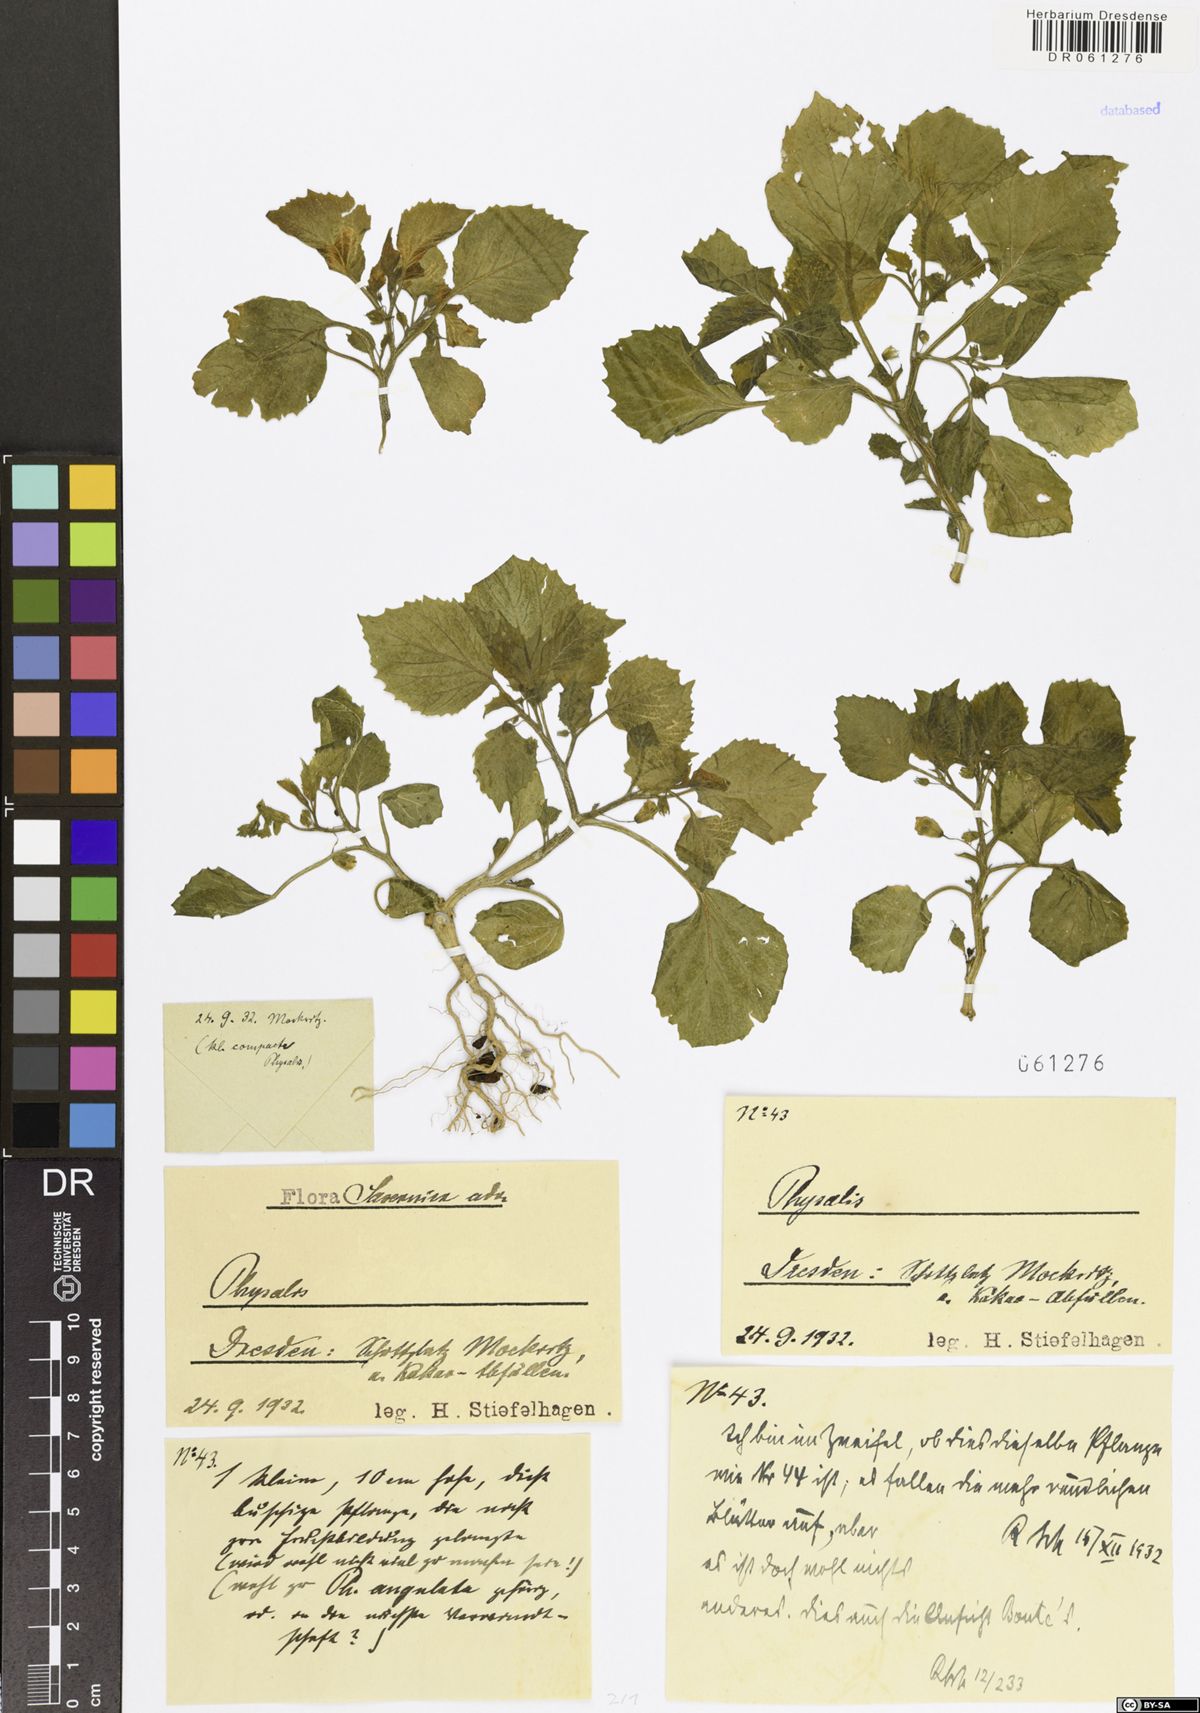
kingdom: Plantae
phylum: Tracheophyta
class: Magnoliopsida
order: Solanales
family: Solanaceae
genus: Physalis
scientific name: Physalis
